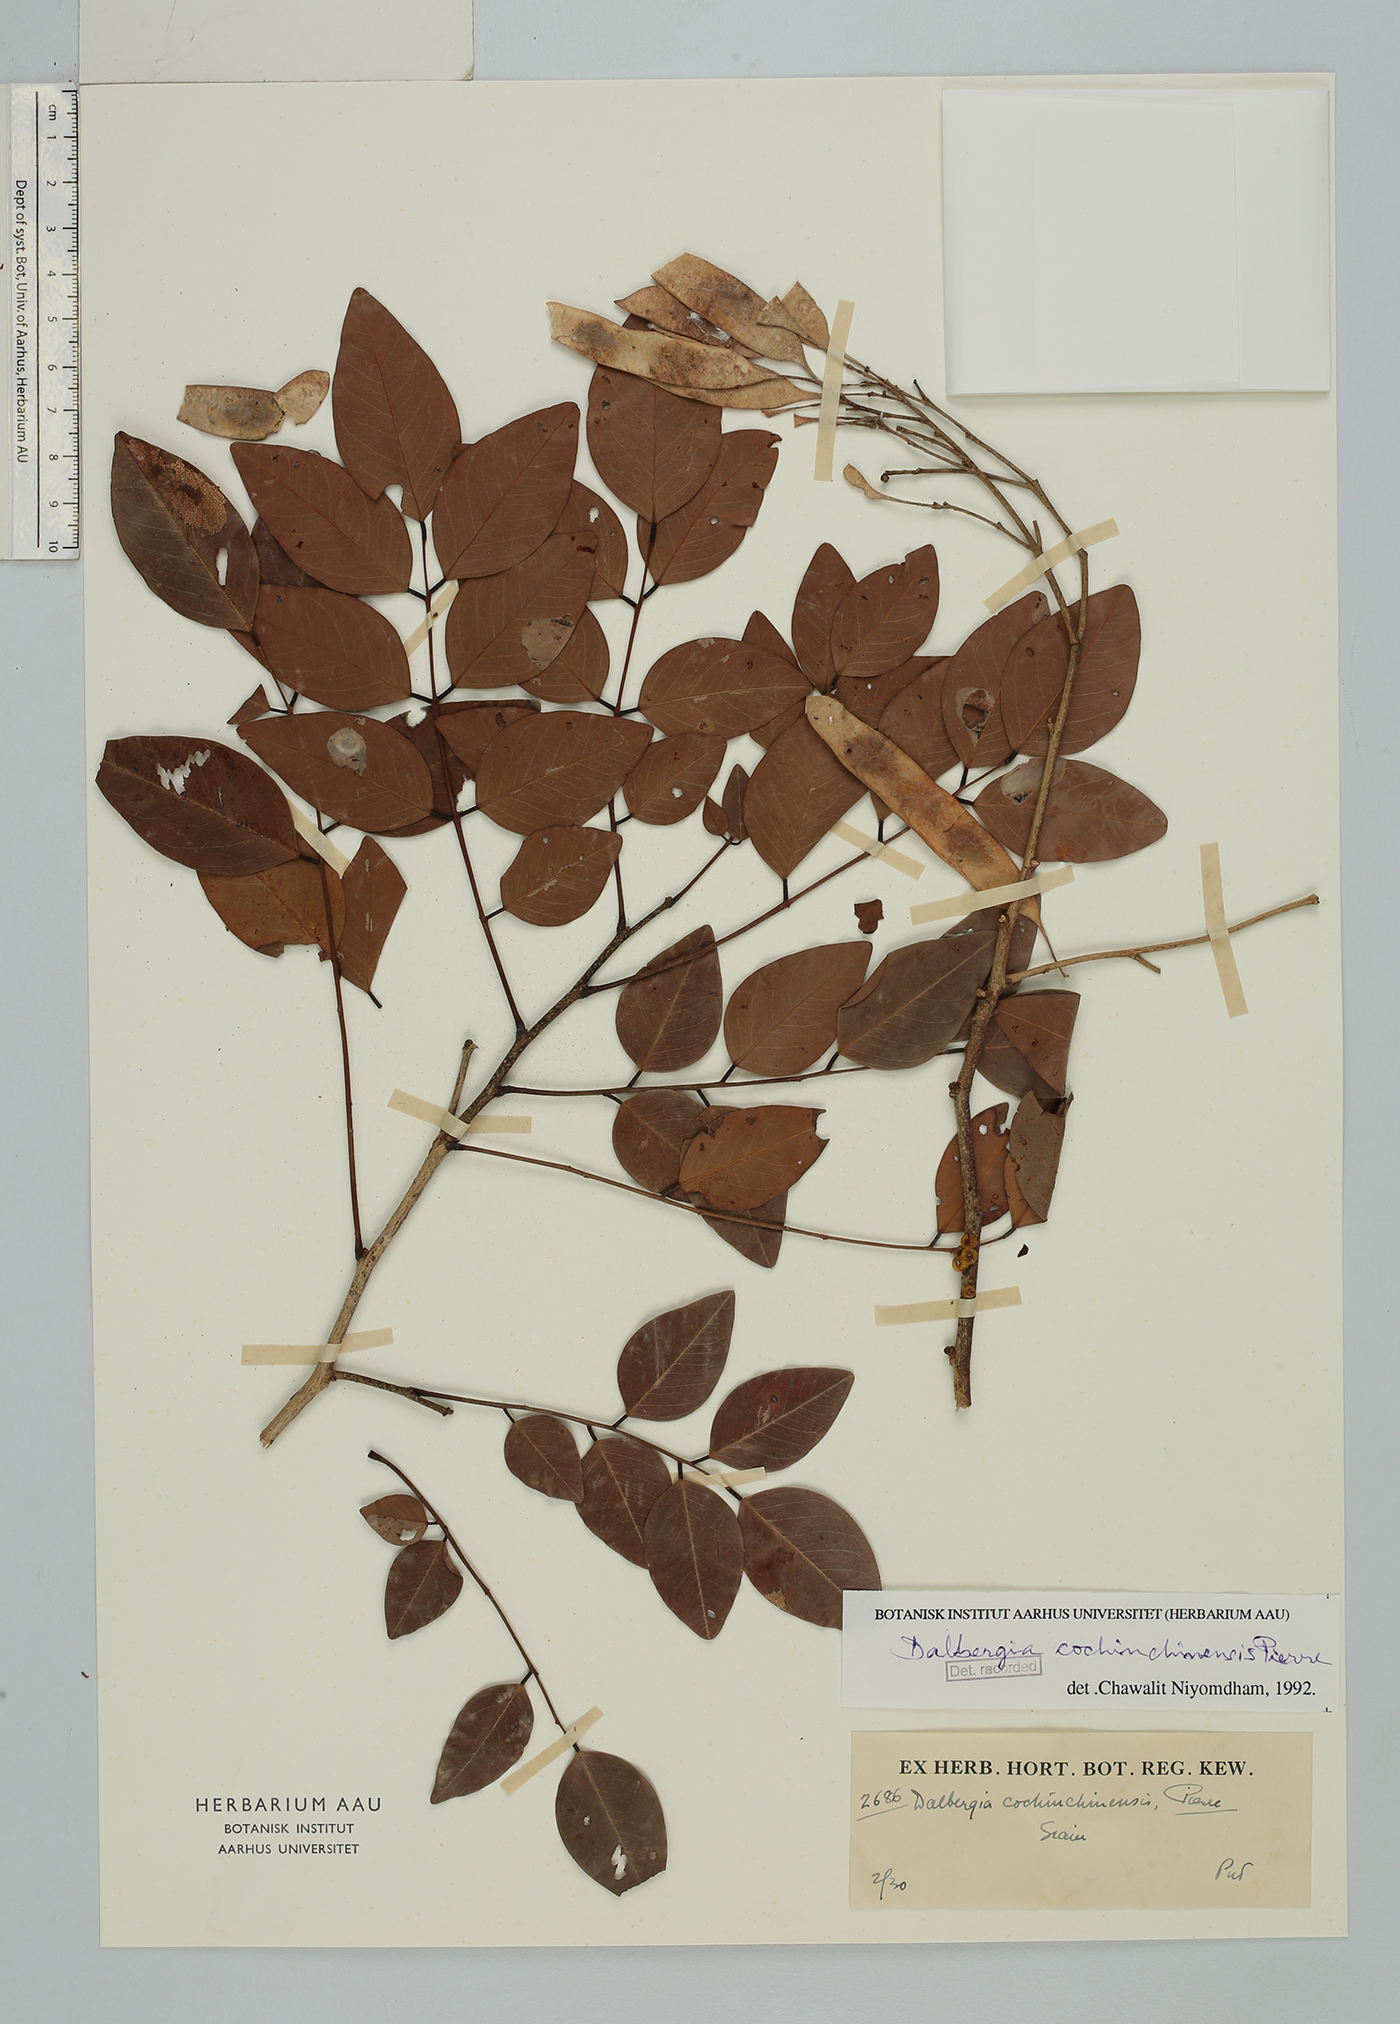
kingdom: Plantae
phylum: Tracheophyta
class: Magnoliopsida
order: Fabales
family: Fabaceae
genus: Dalbergia
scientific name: Dalbergia cochinchinensis
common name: Siamese rosewood
